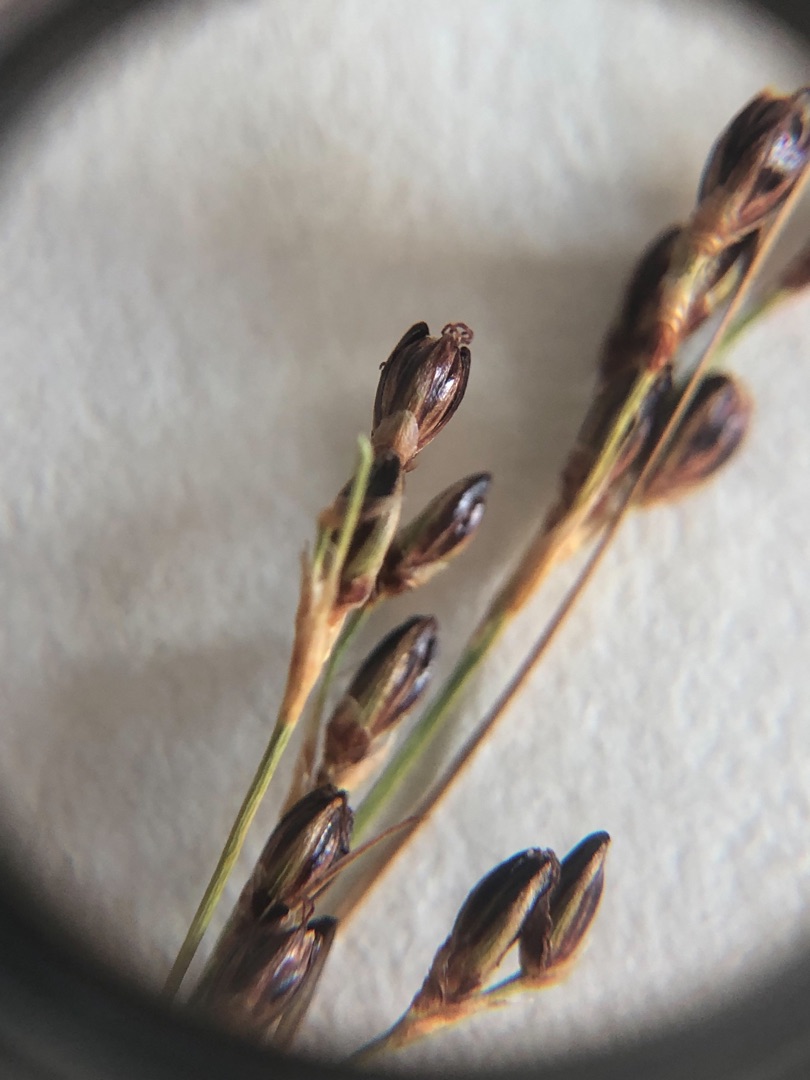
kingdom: Plantae
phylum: Tracheophyta
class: Liliopsida
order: Poales
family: Juncaceae
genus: Juncus
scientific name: Juncus gerardi
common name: Harril
